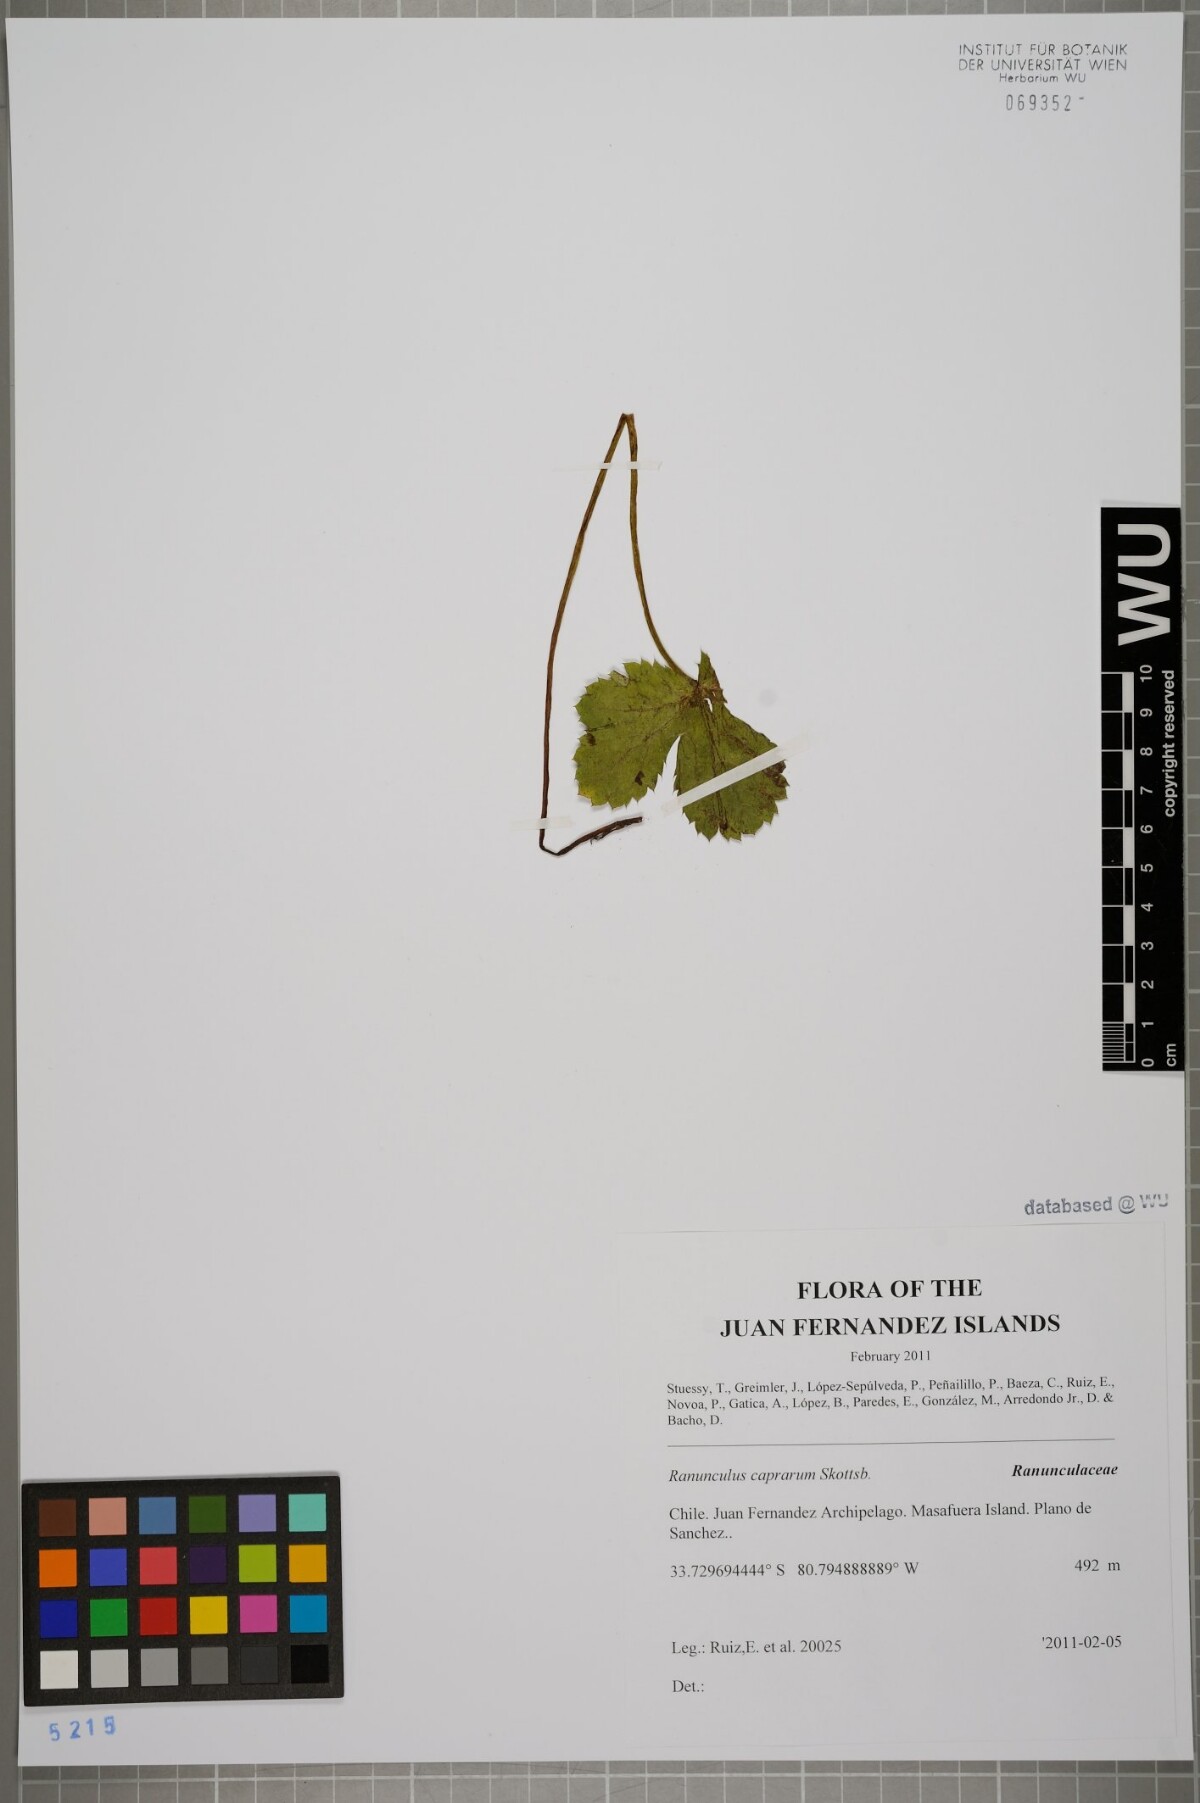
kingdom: Plantae
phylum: Tracheophyta
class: Magnoliopsida
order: Ranunculales
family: Ranunculaceae
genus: Ranunculus
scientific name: Ranunculus caprarum
